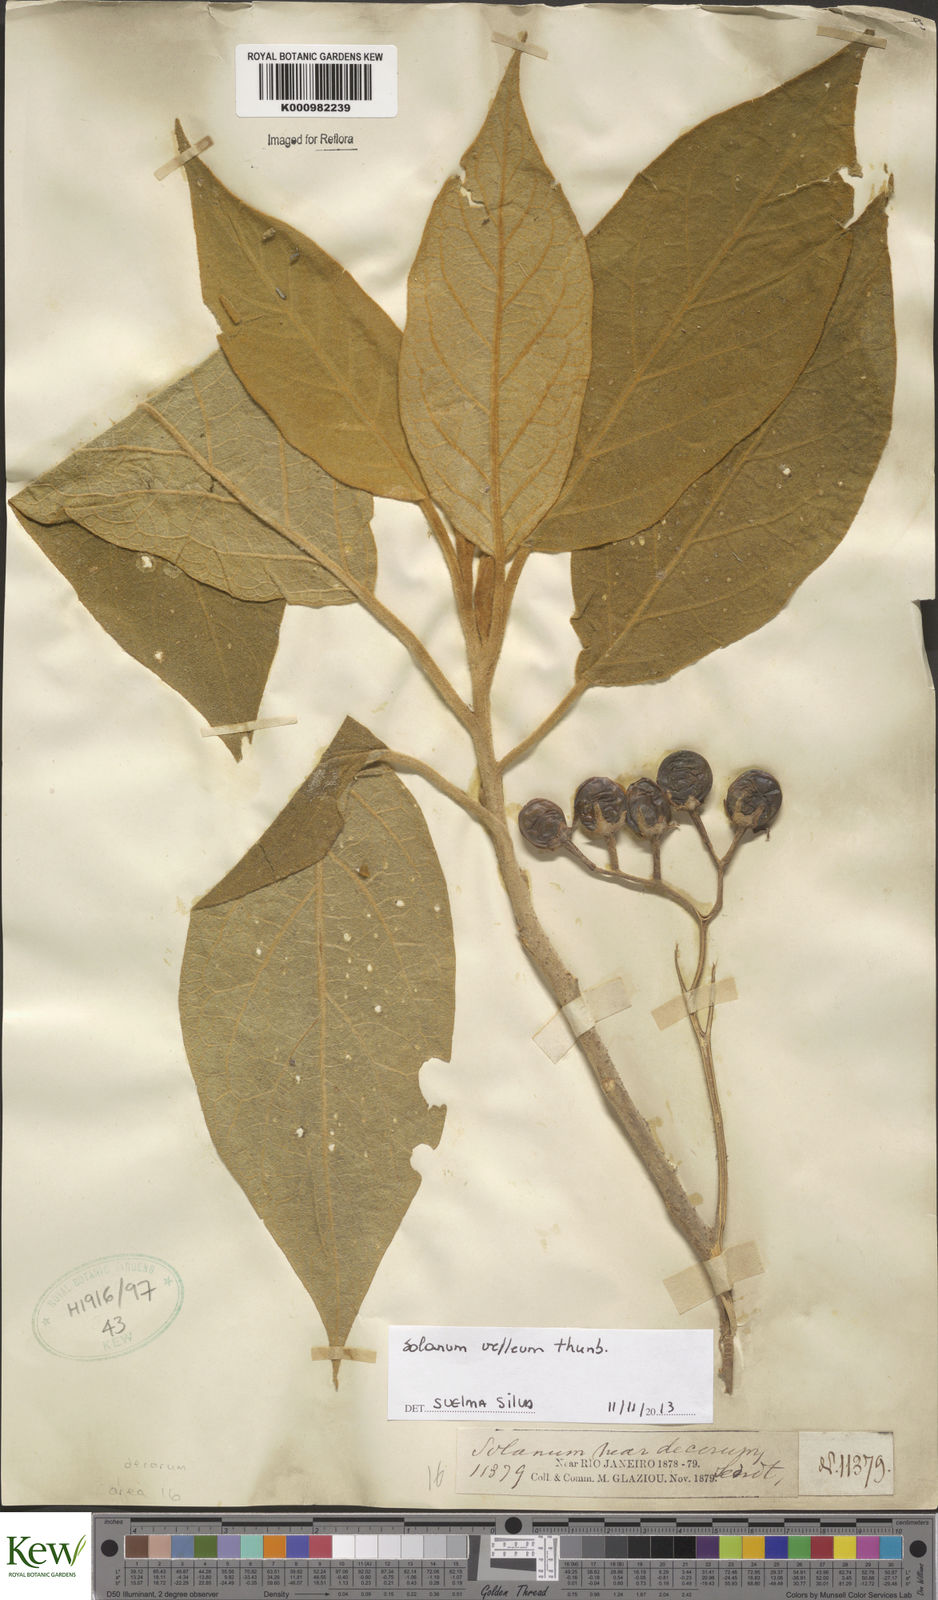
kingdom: Plantae
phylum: Tracheophyta
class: Magnoliopsida
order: Solanales
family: Solanaceae
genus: Solanum
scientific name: Solanum velleum
